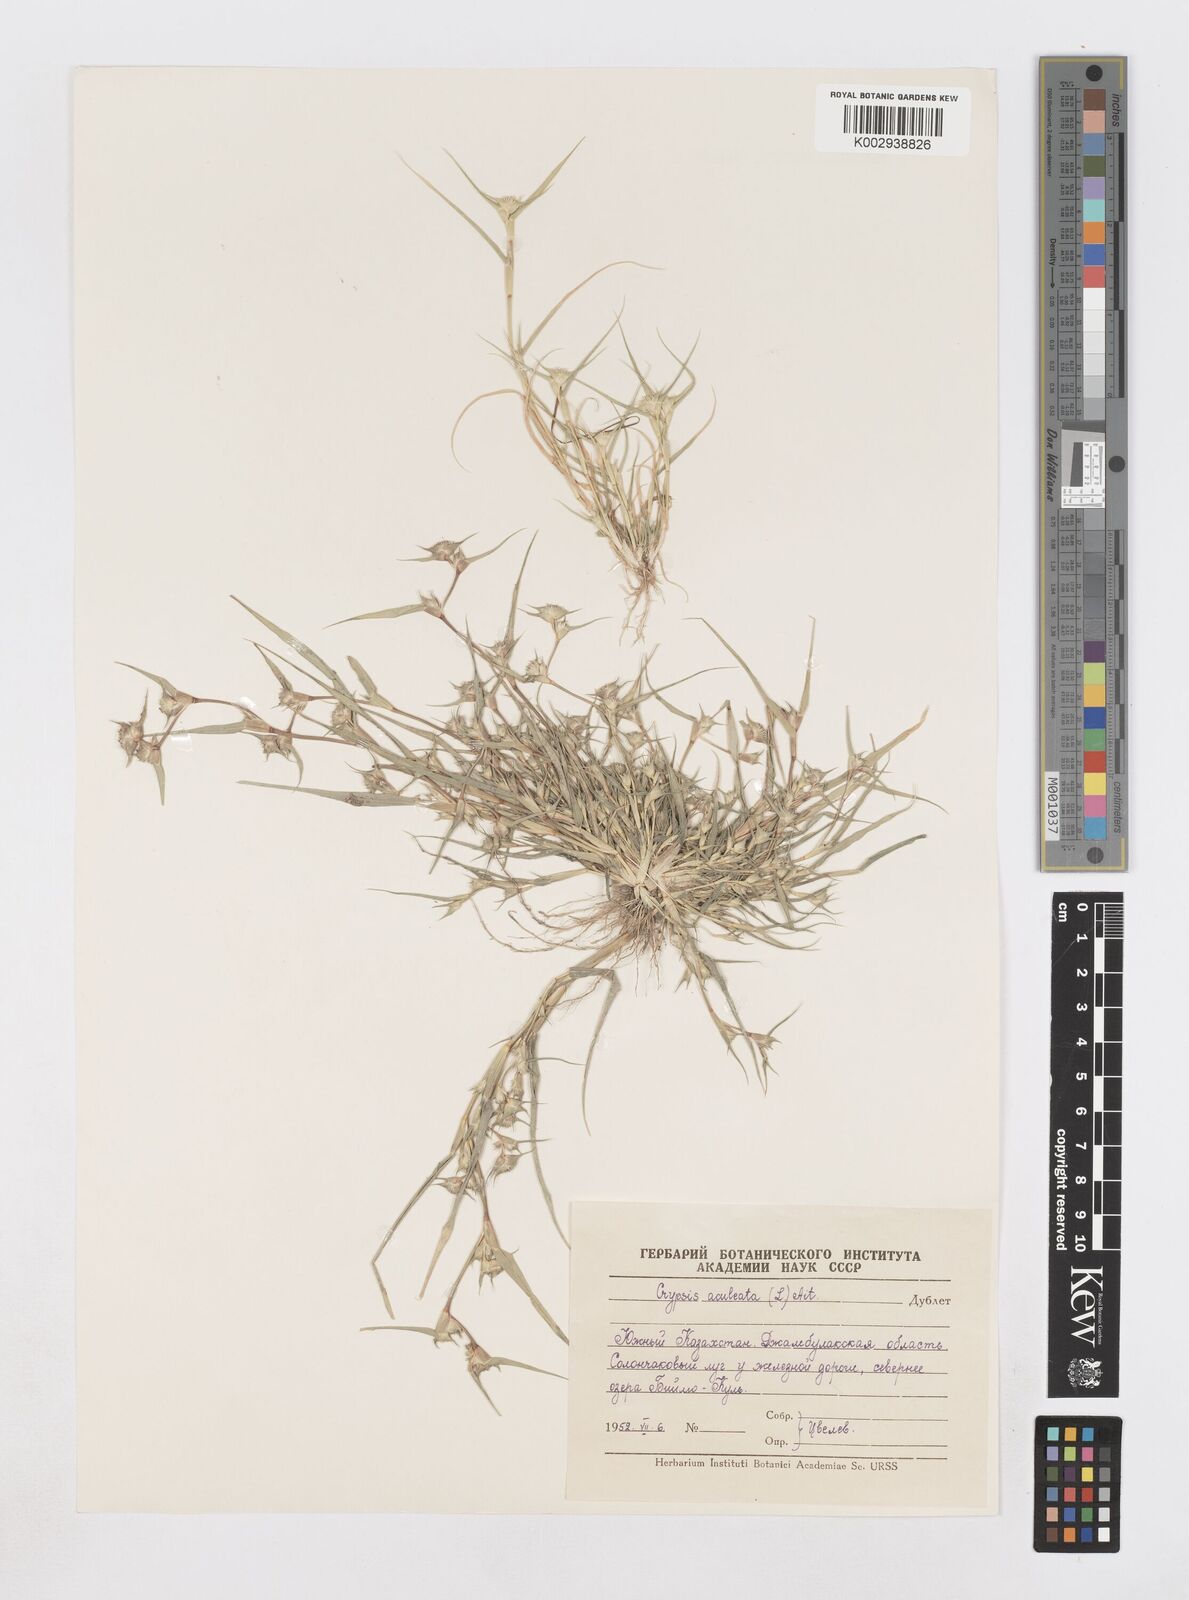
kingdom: Plantae
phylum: Tracheophyta
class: Liliopsida
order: Poales
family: Poaceae
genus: Sporobolus
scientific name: Sporobolus aculeatus
